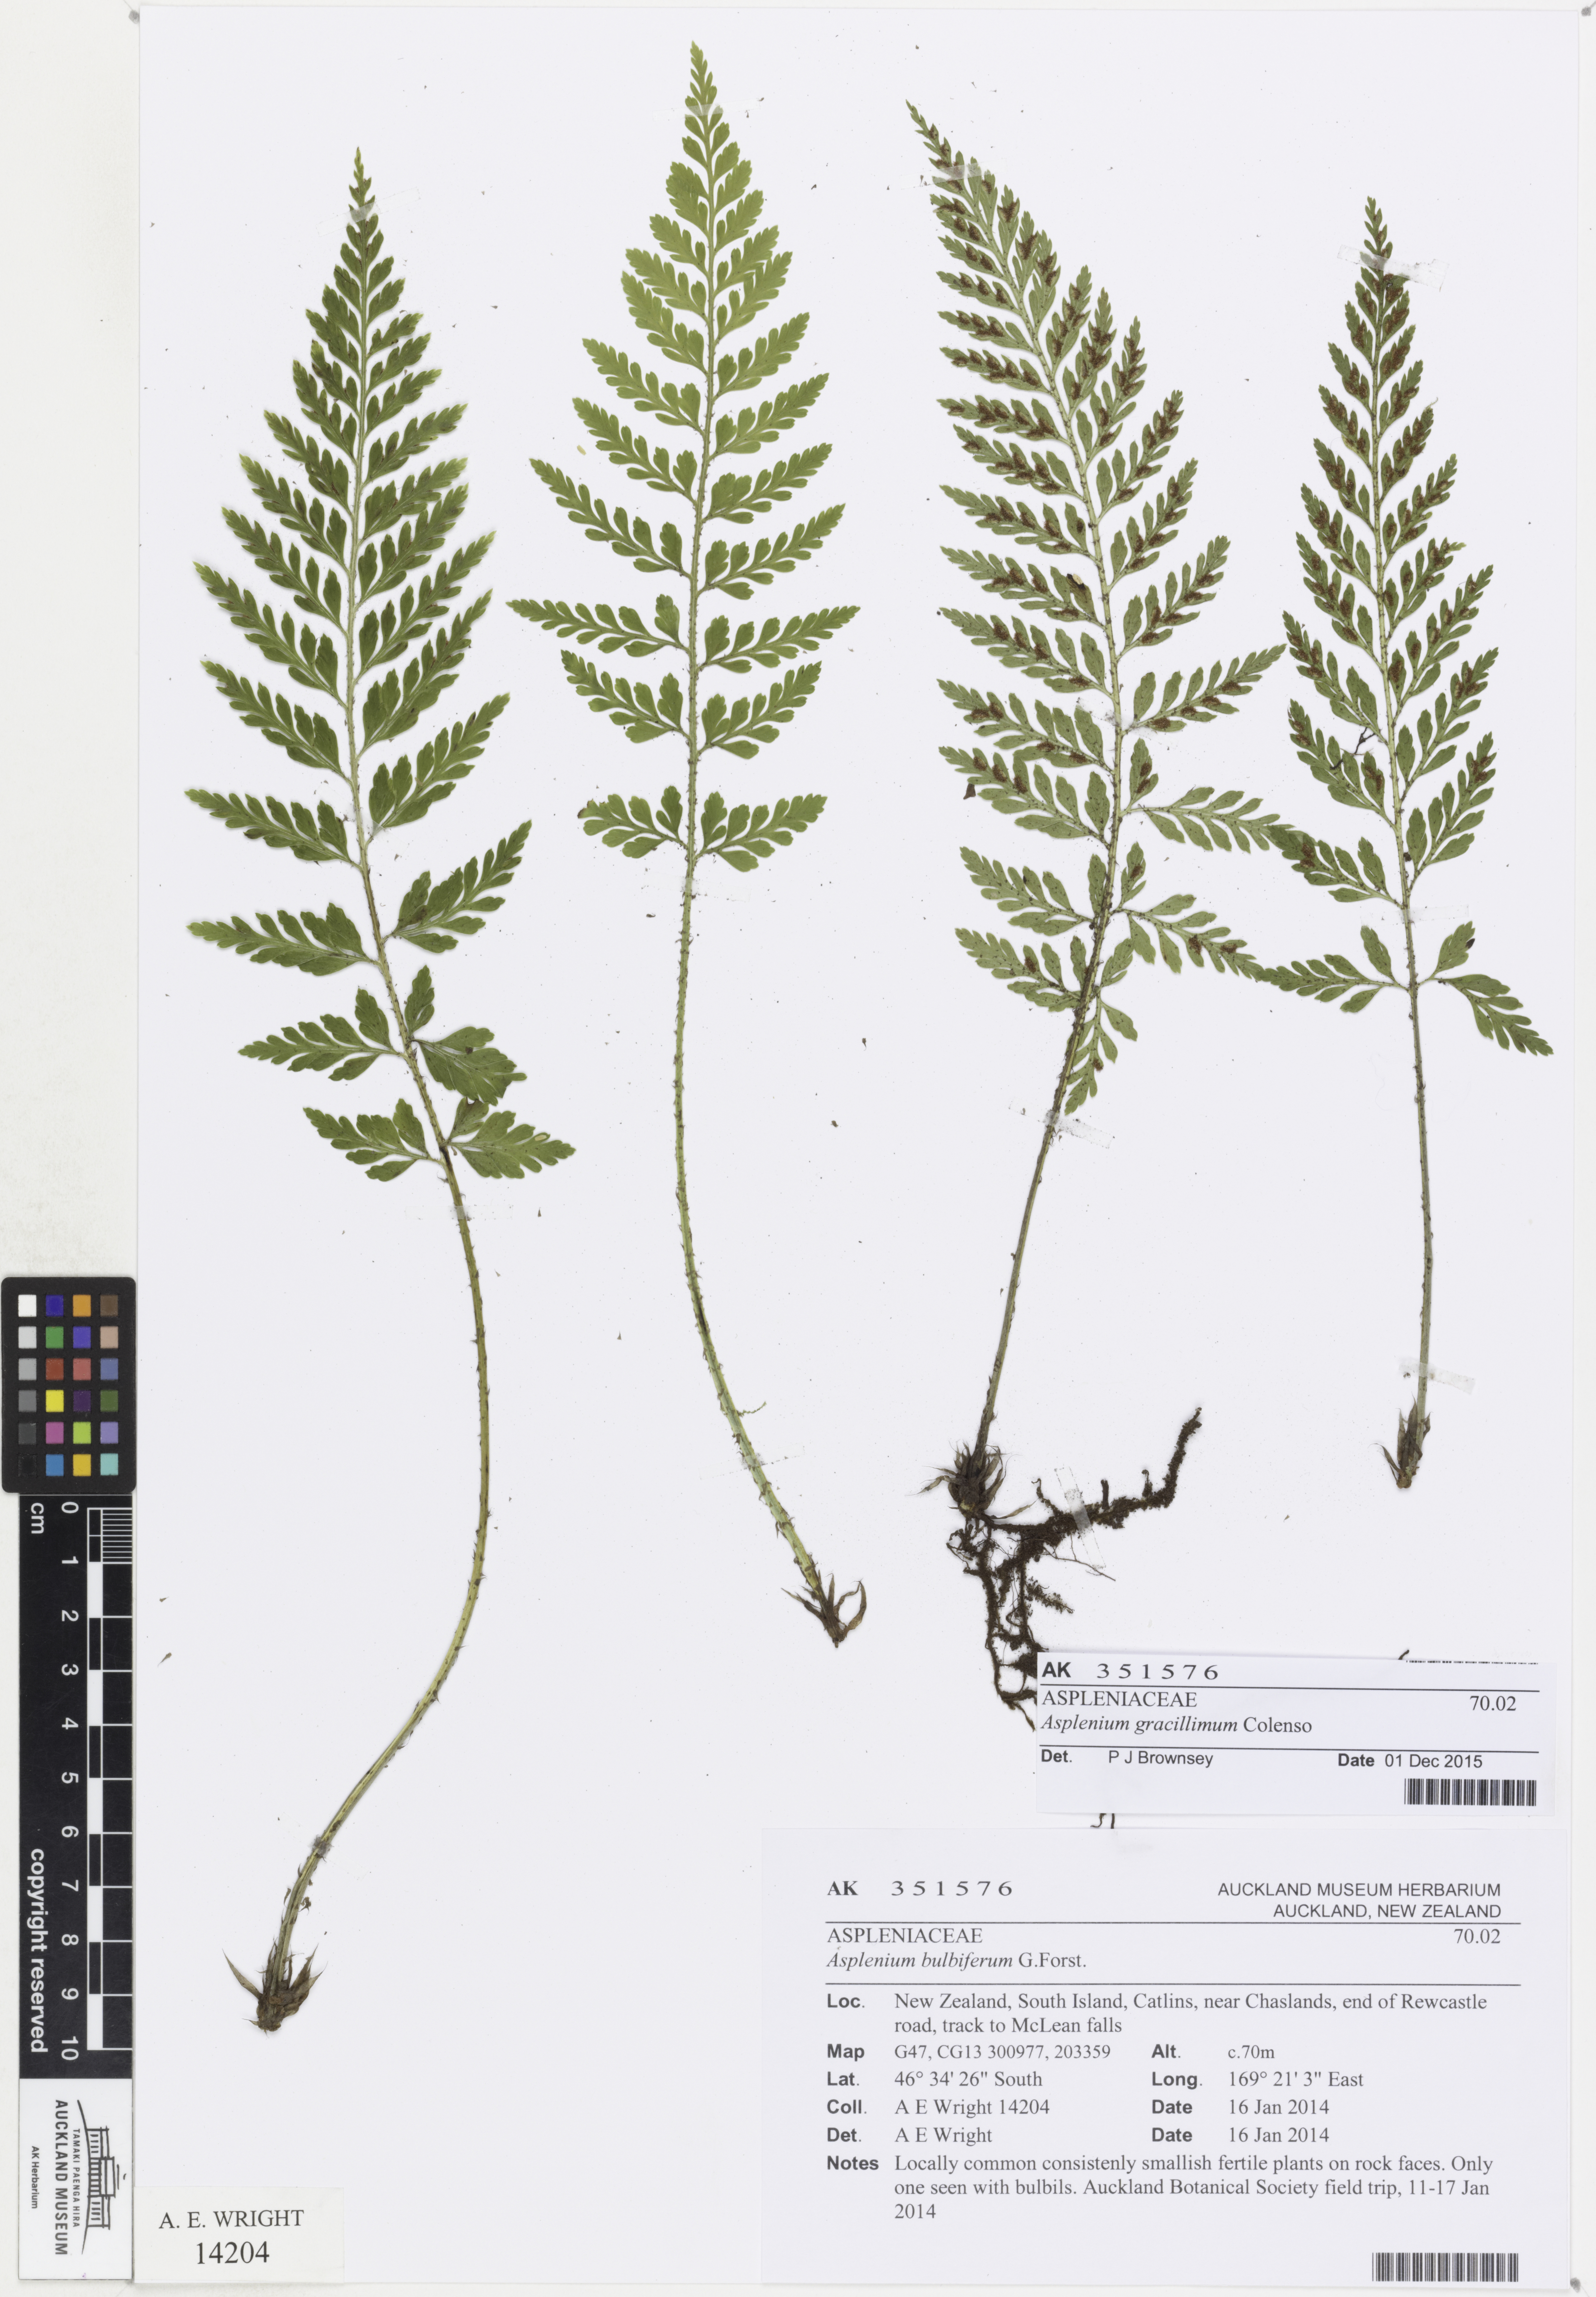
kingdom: Plantae
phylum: Tracheophyta
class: Polypodiopsida
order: Polypodiales
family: Aspleniaceae
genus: Asplenium
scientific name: Asplenium bulbiferum
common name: Mother fern
